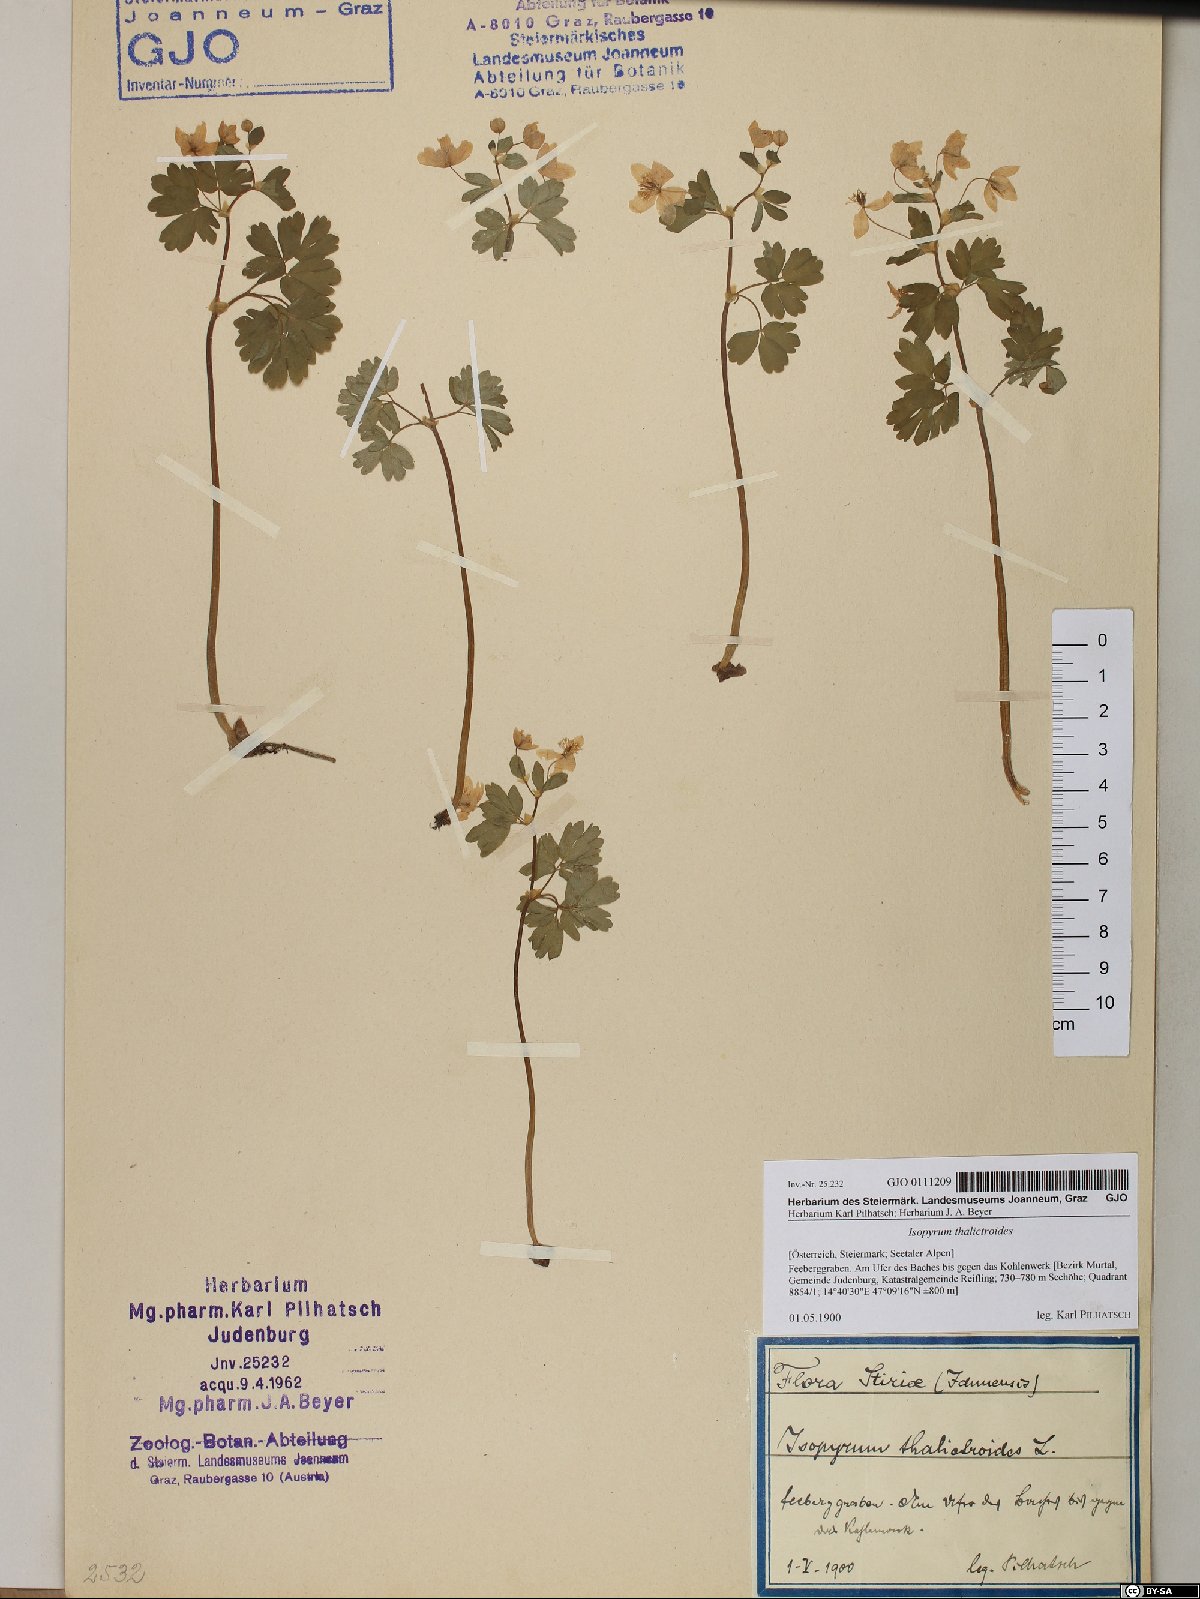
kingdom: Plantae
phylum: Tracheophyta
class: Magnoliopsida
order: Ranunculales
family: Ranunculaceae
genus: Isopyrum
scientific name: Isopyrum thalictroides
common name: Isopyrum
